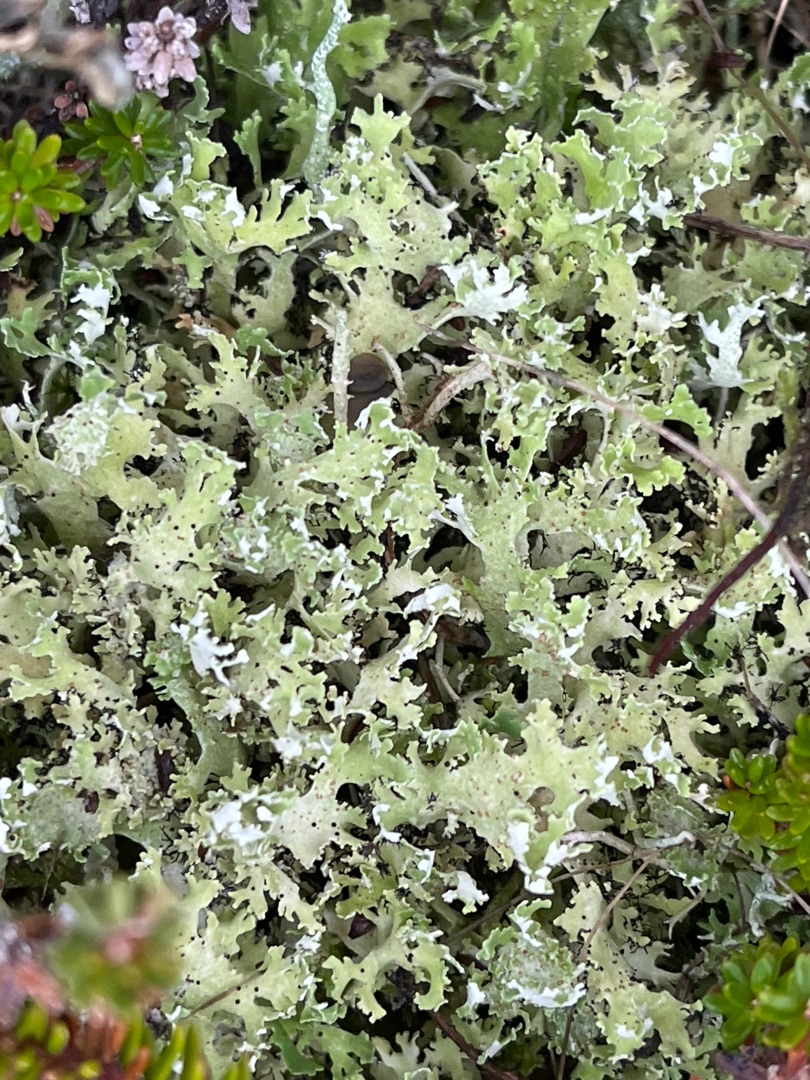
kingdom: Fungi
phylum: Ascomycota
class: Lecanoromycetes
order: Lecanorales
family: Cladoniaceae
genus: Cladonia
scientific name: Cladonia foliacea
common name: Fliget bægerlav
